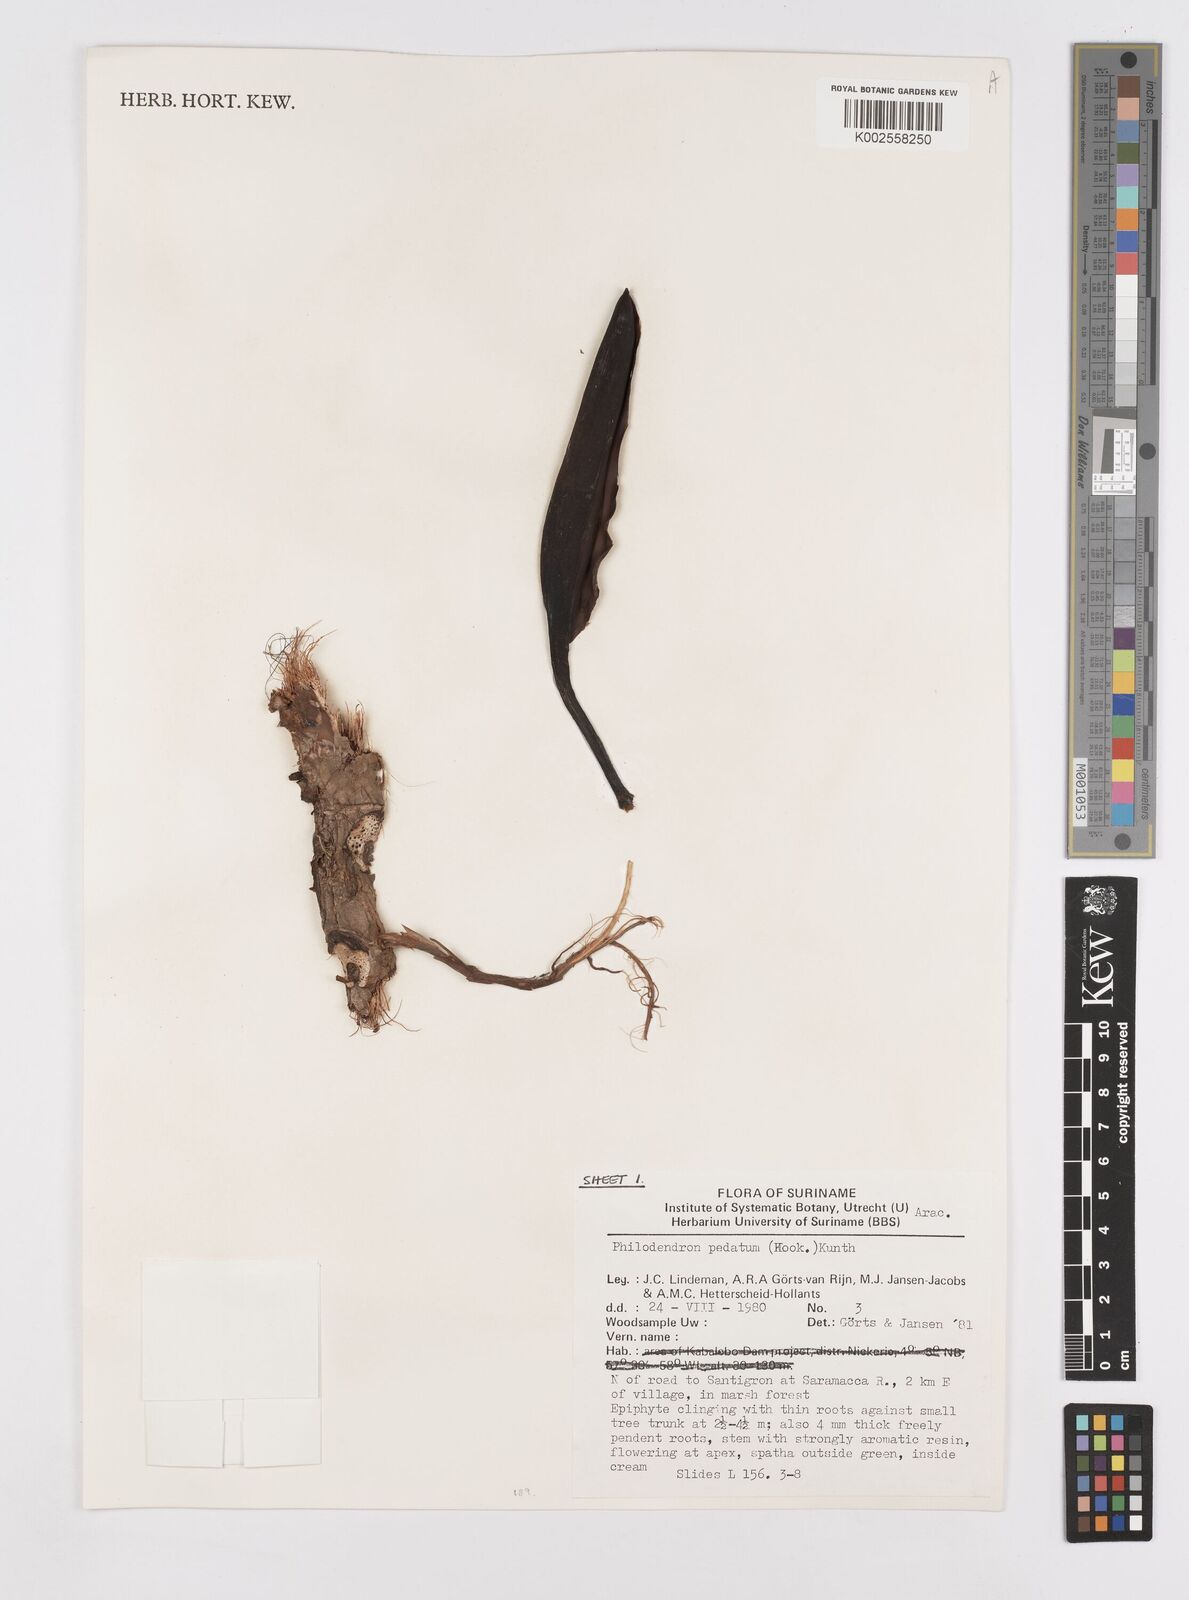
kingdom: Plantae
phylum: Tracheophyta
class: Liliopsida
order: Alismatales
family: Araceae
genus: Philodendron
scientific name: Philodendron pedatum
